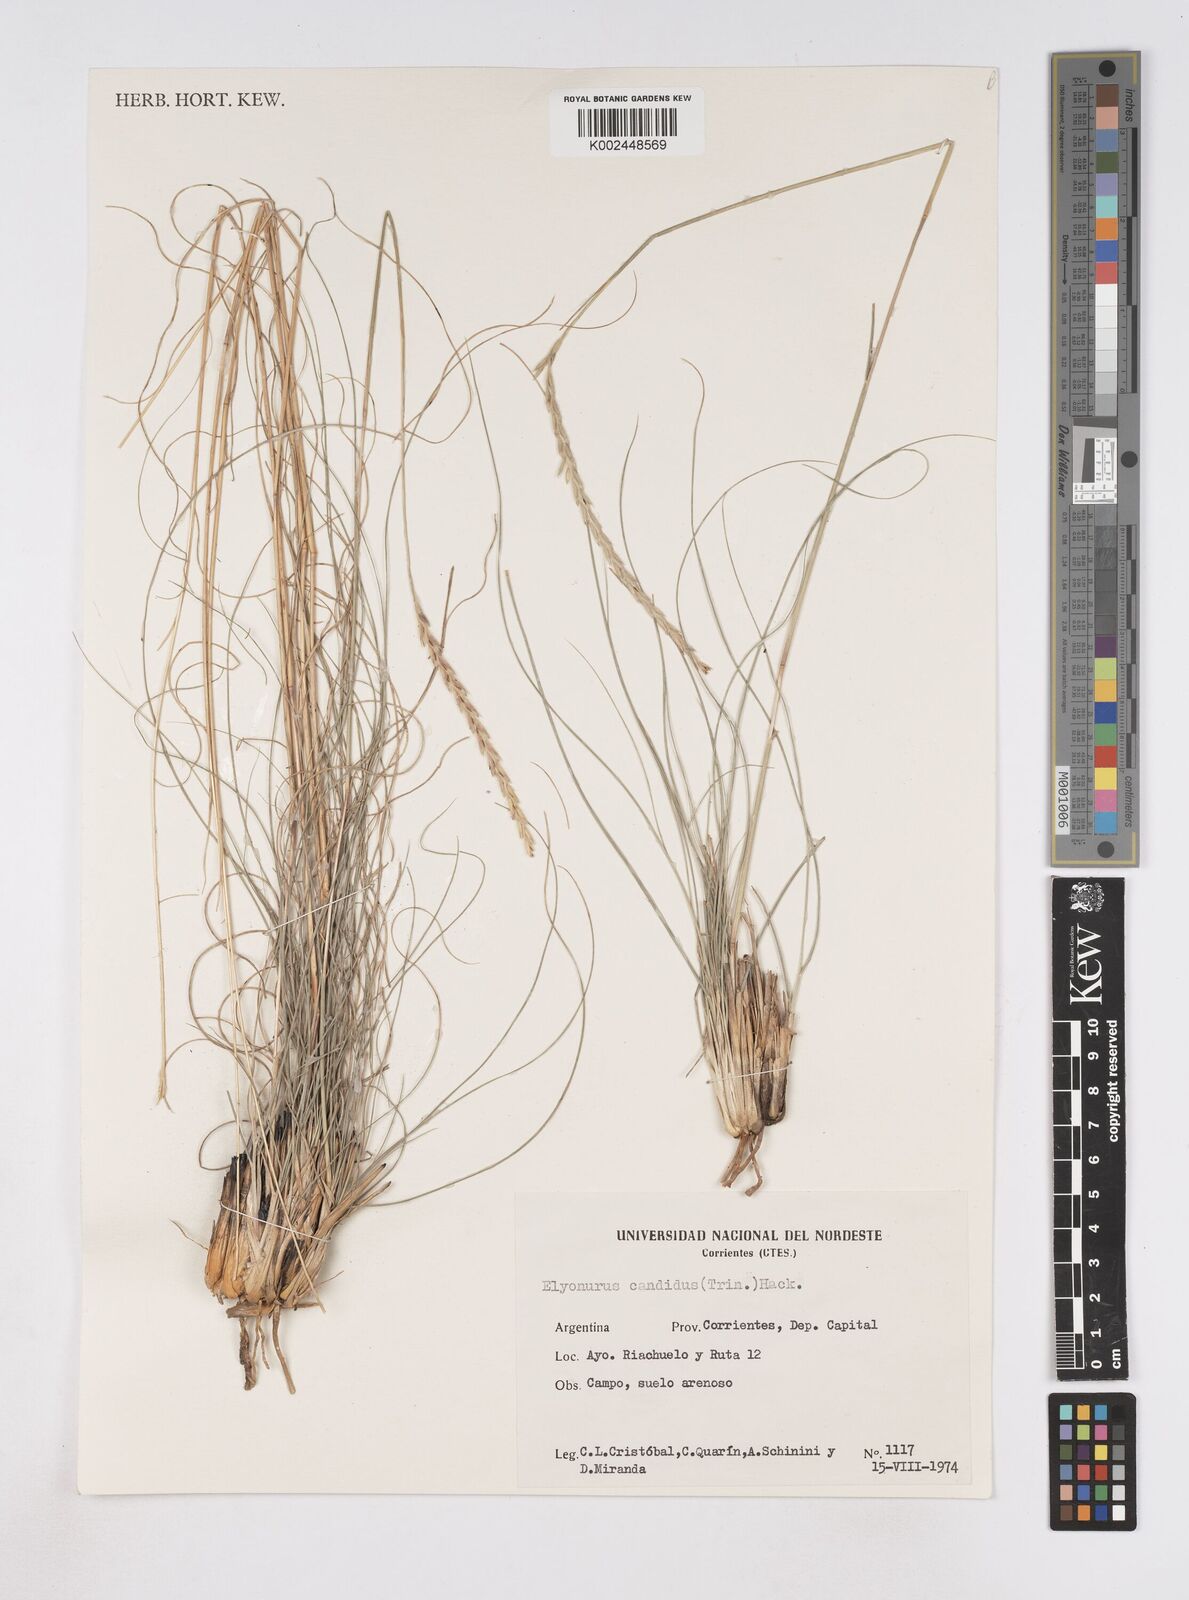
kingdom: Plantae
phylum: Tracheophyta
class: Liliopsida
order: Poales
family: Poaceae
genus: Elionurus
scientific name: Elionurus muticus
